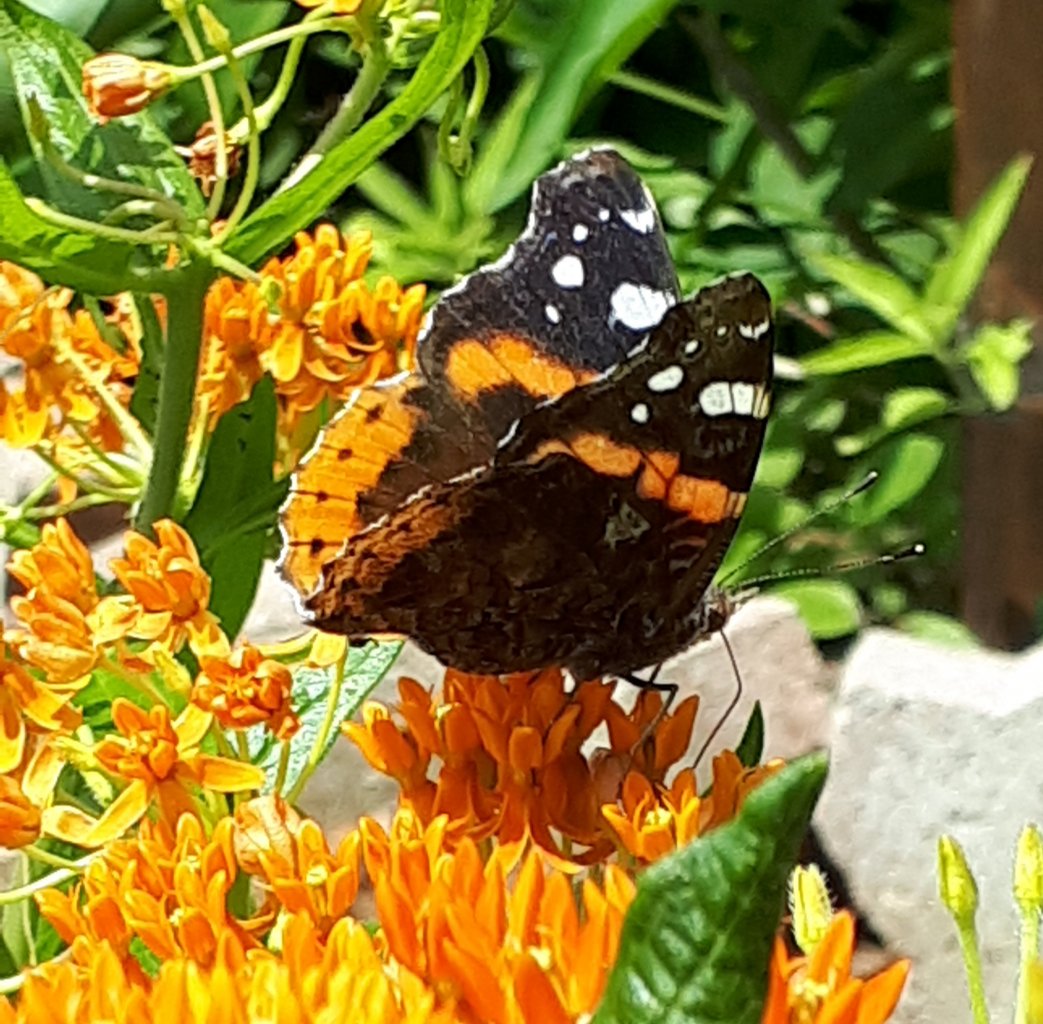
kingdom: Animalia
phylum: Arthropoda
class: Insecta
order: Lepidoptera
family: Nymphalidae
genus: Vanessa
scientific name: Vanessa atalanta
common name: Red Admiral
